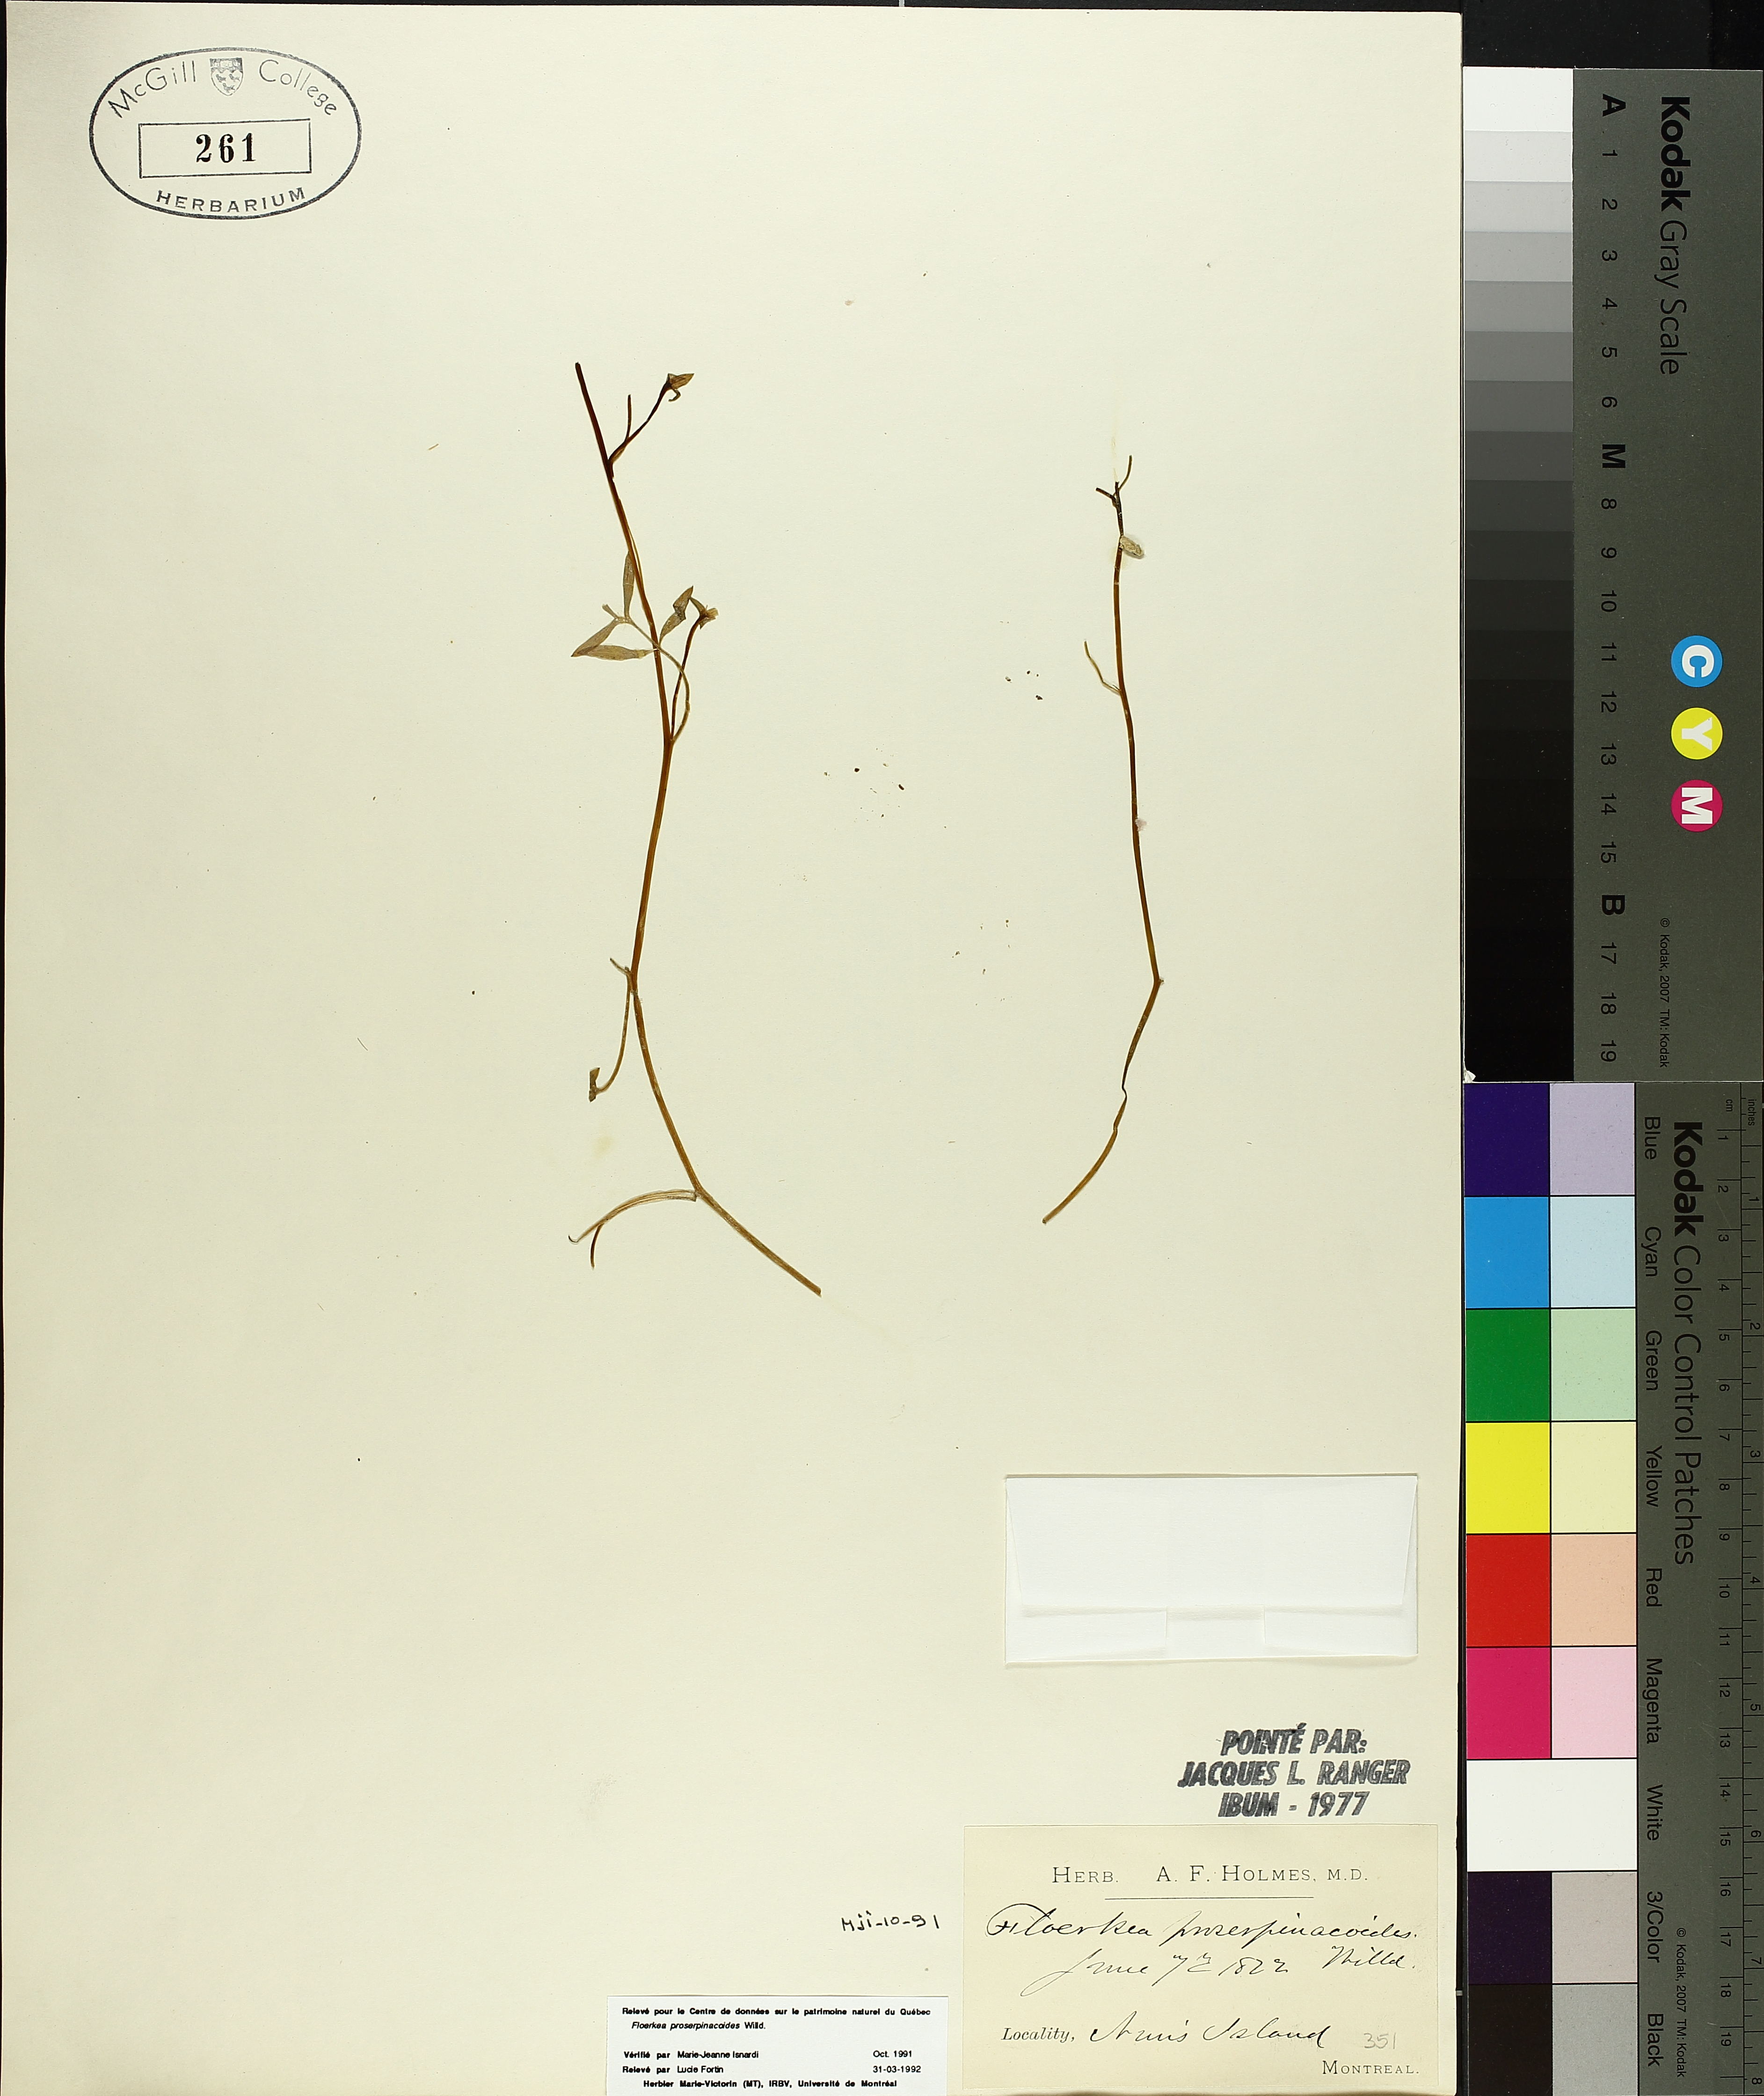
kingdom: Plantae
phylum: Tracheophyta
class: Magnoliopsida
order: Brassicales
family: Limnanthaceae
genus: Floerkea
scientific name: Floerkea proserpinacoides
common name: False mermaid
